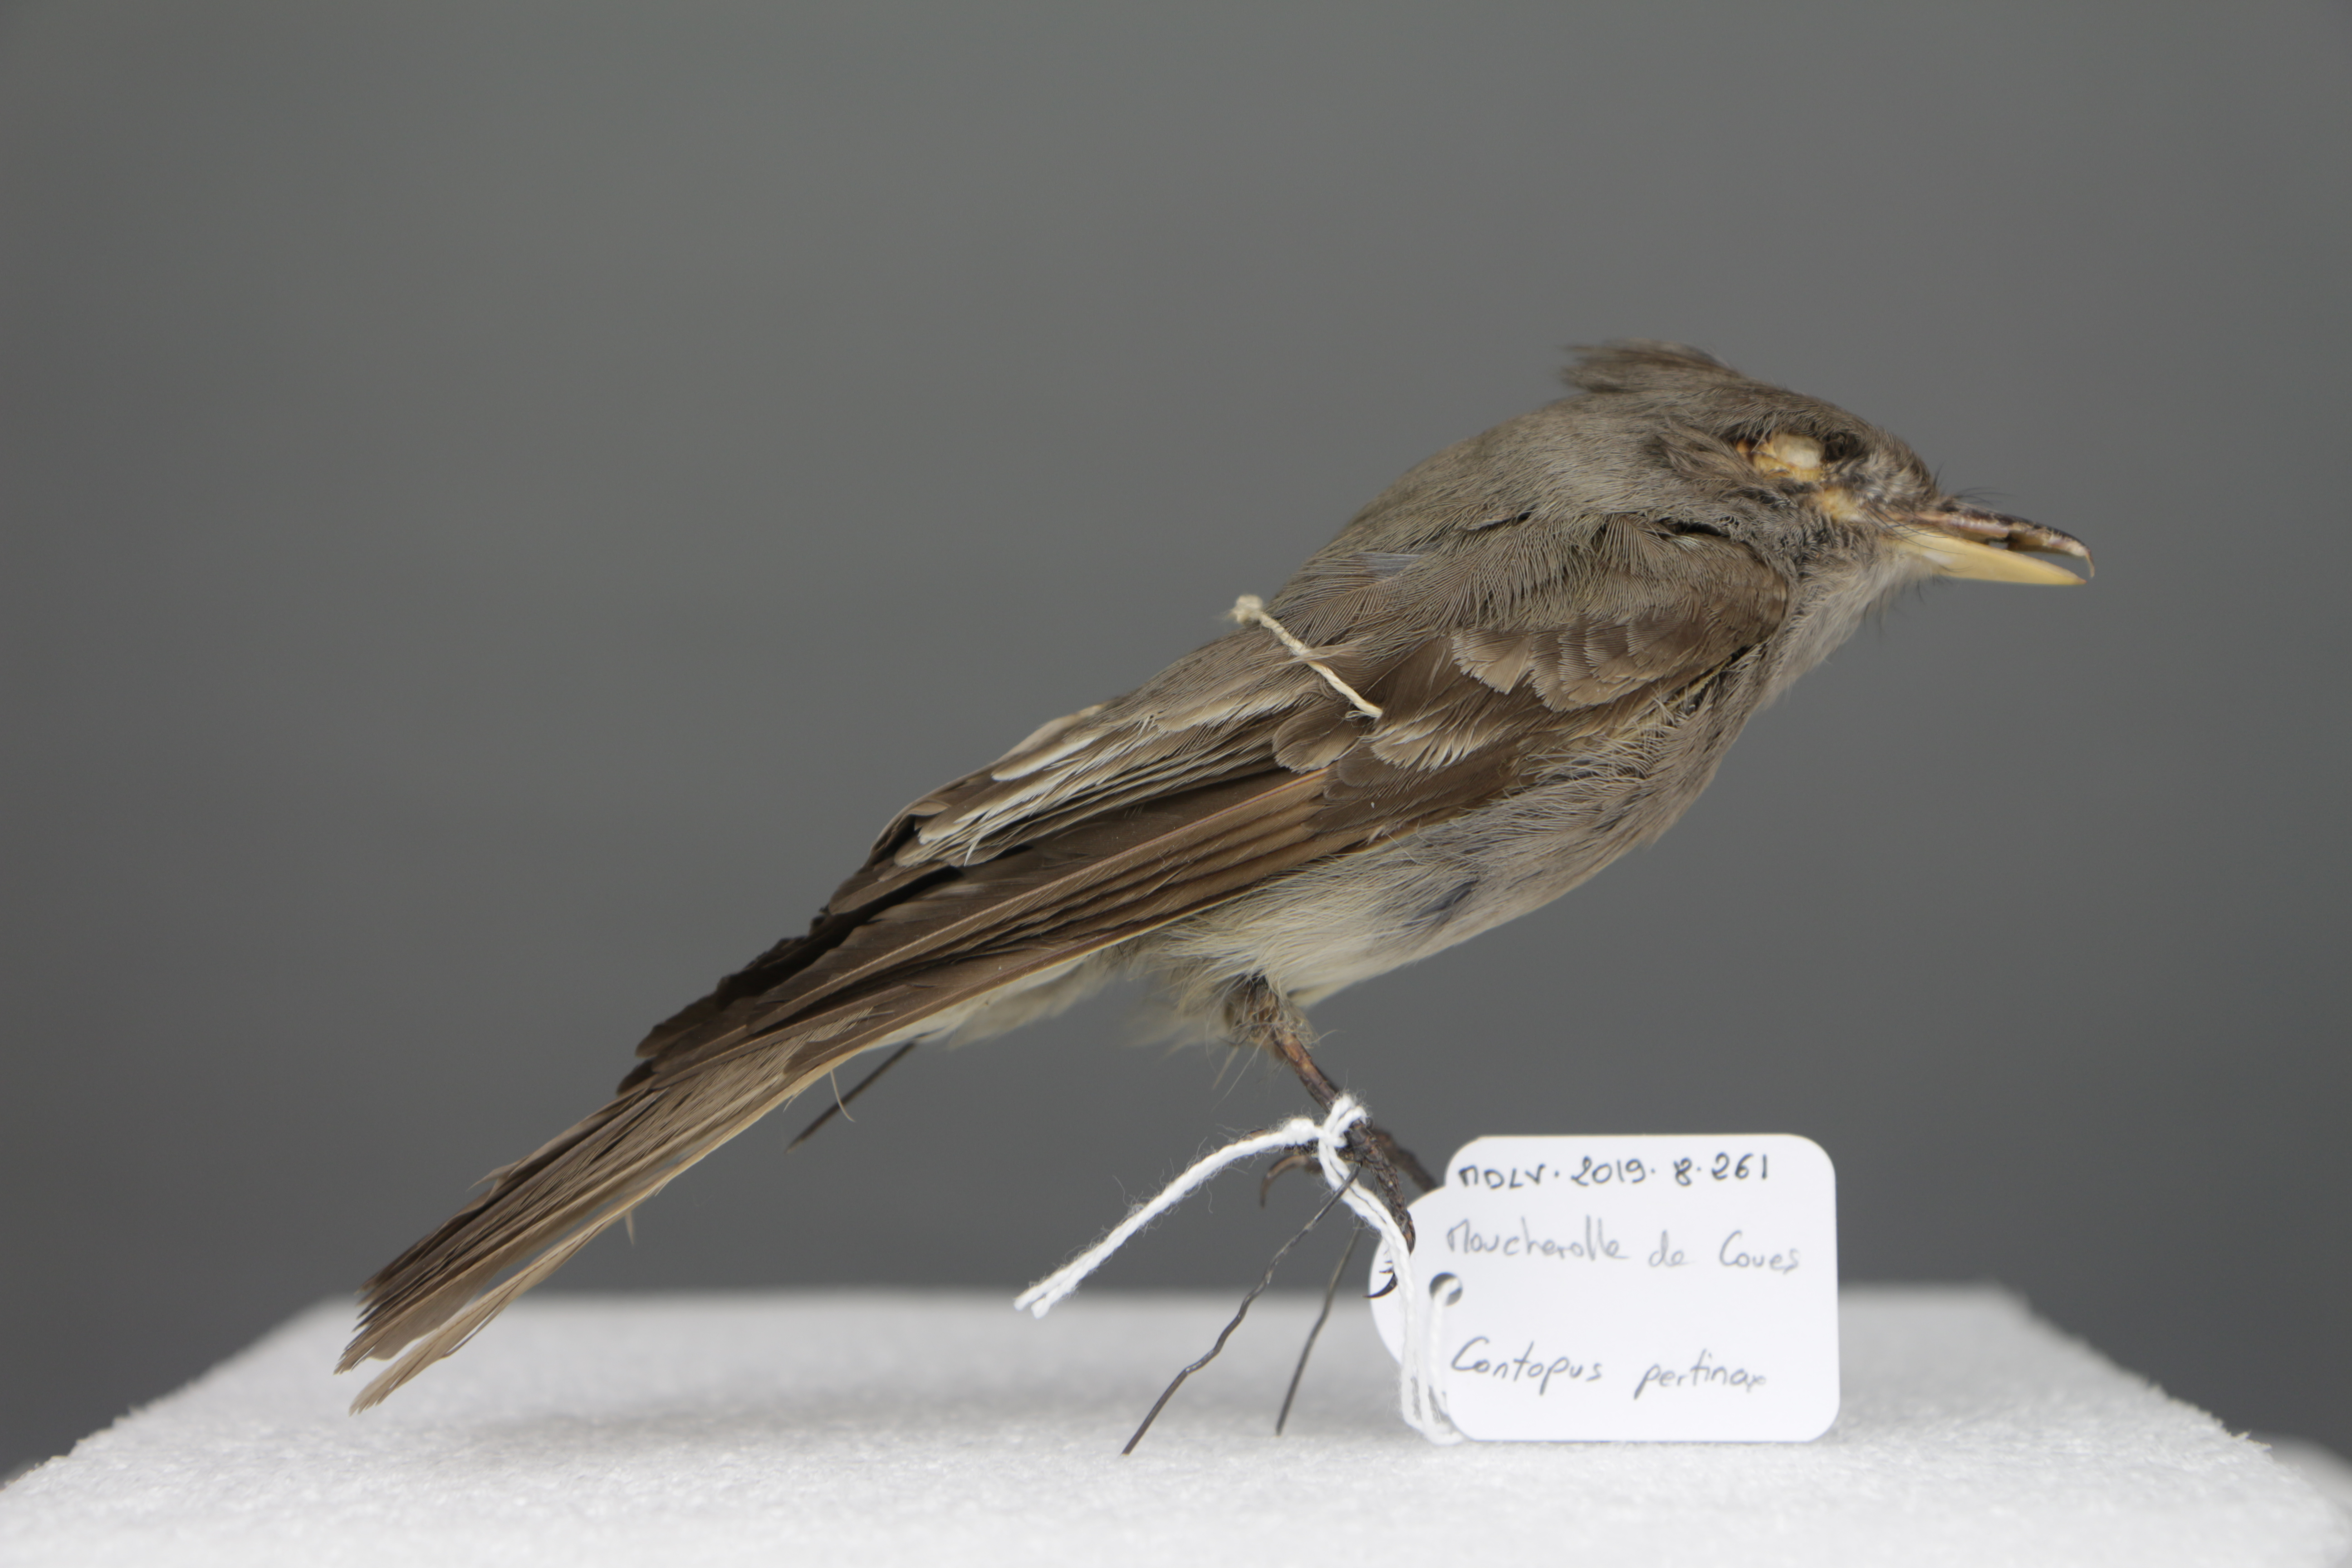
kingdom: Animalia
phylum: Chordata
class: Aves
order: Passeriformes
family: Tyrannidae
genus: Contopus
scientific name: Contopus pertinax
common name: Greater pewee
